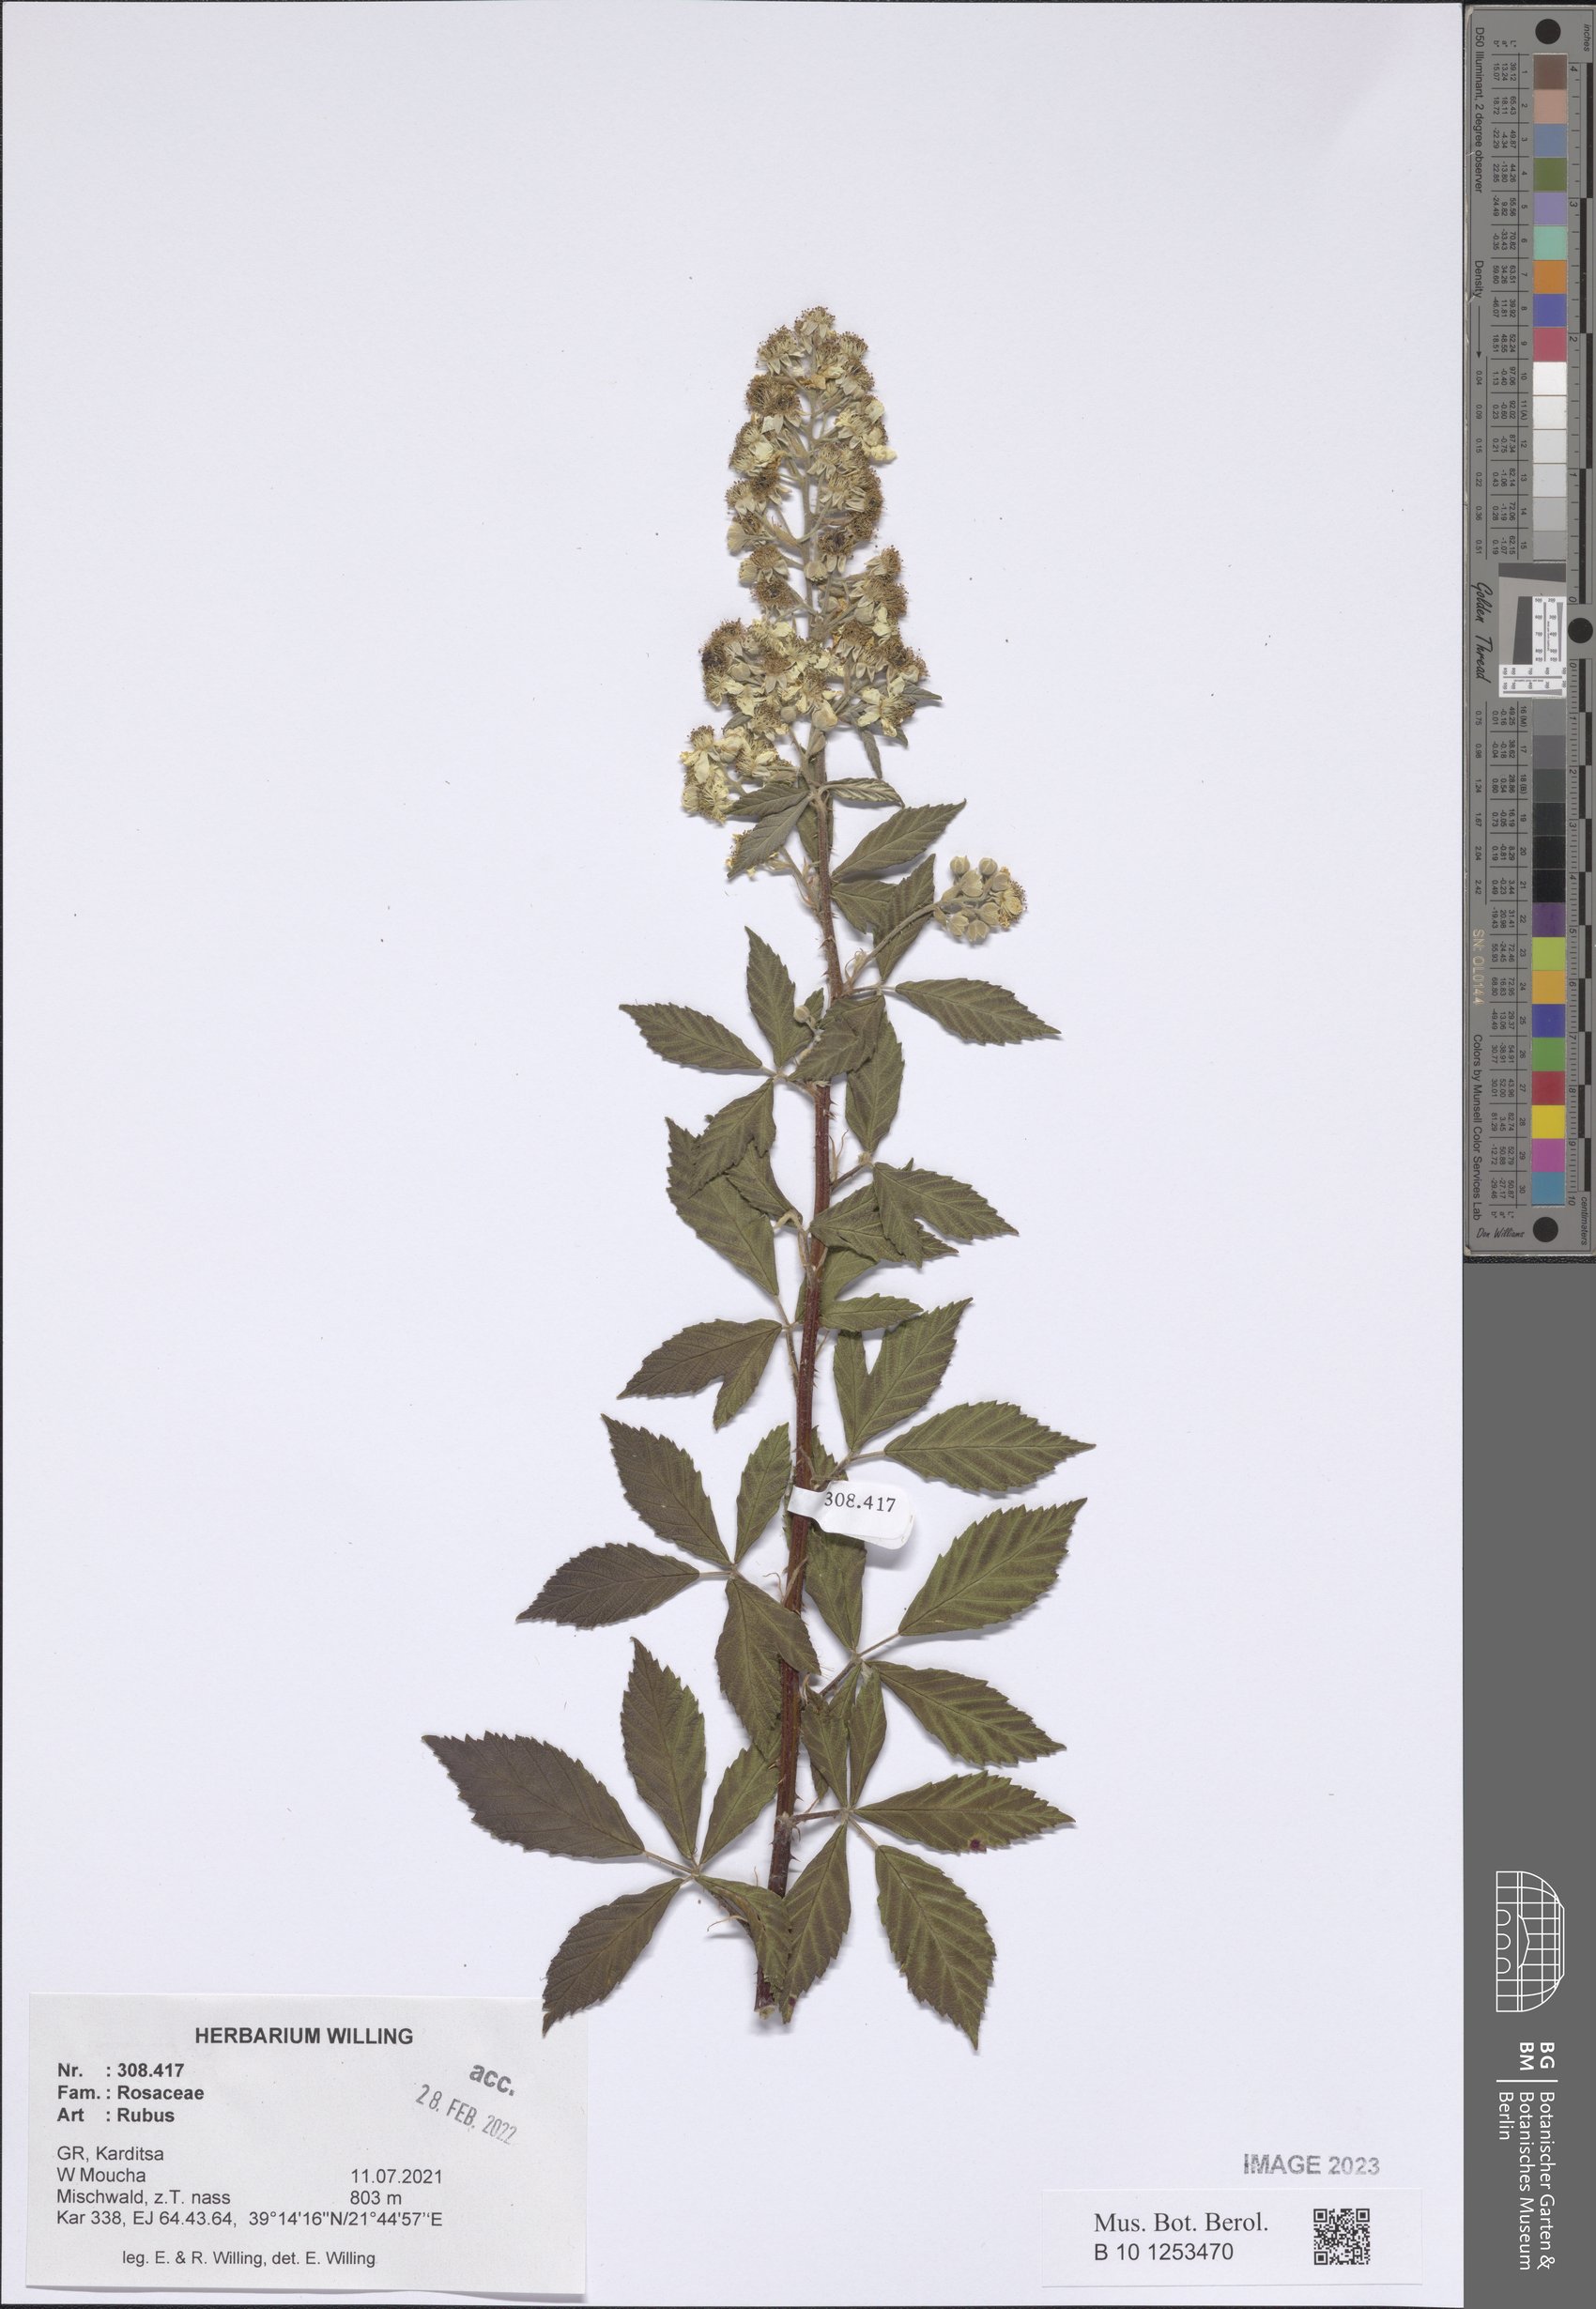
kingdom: Plantae
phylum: Tracheophyta
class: Magnoliopsida
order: Rosales
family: Rosaceae
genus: Rubus
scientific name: Rubus
